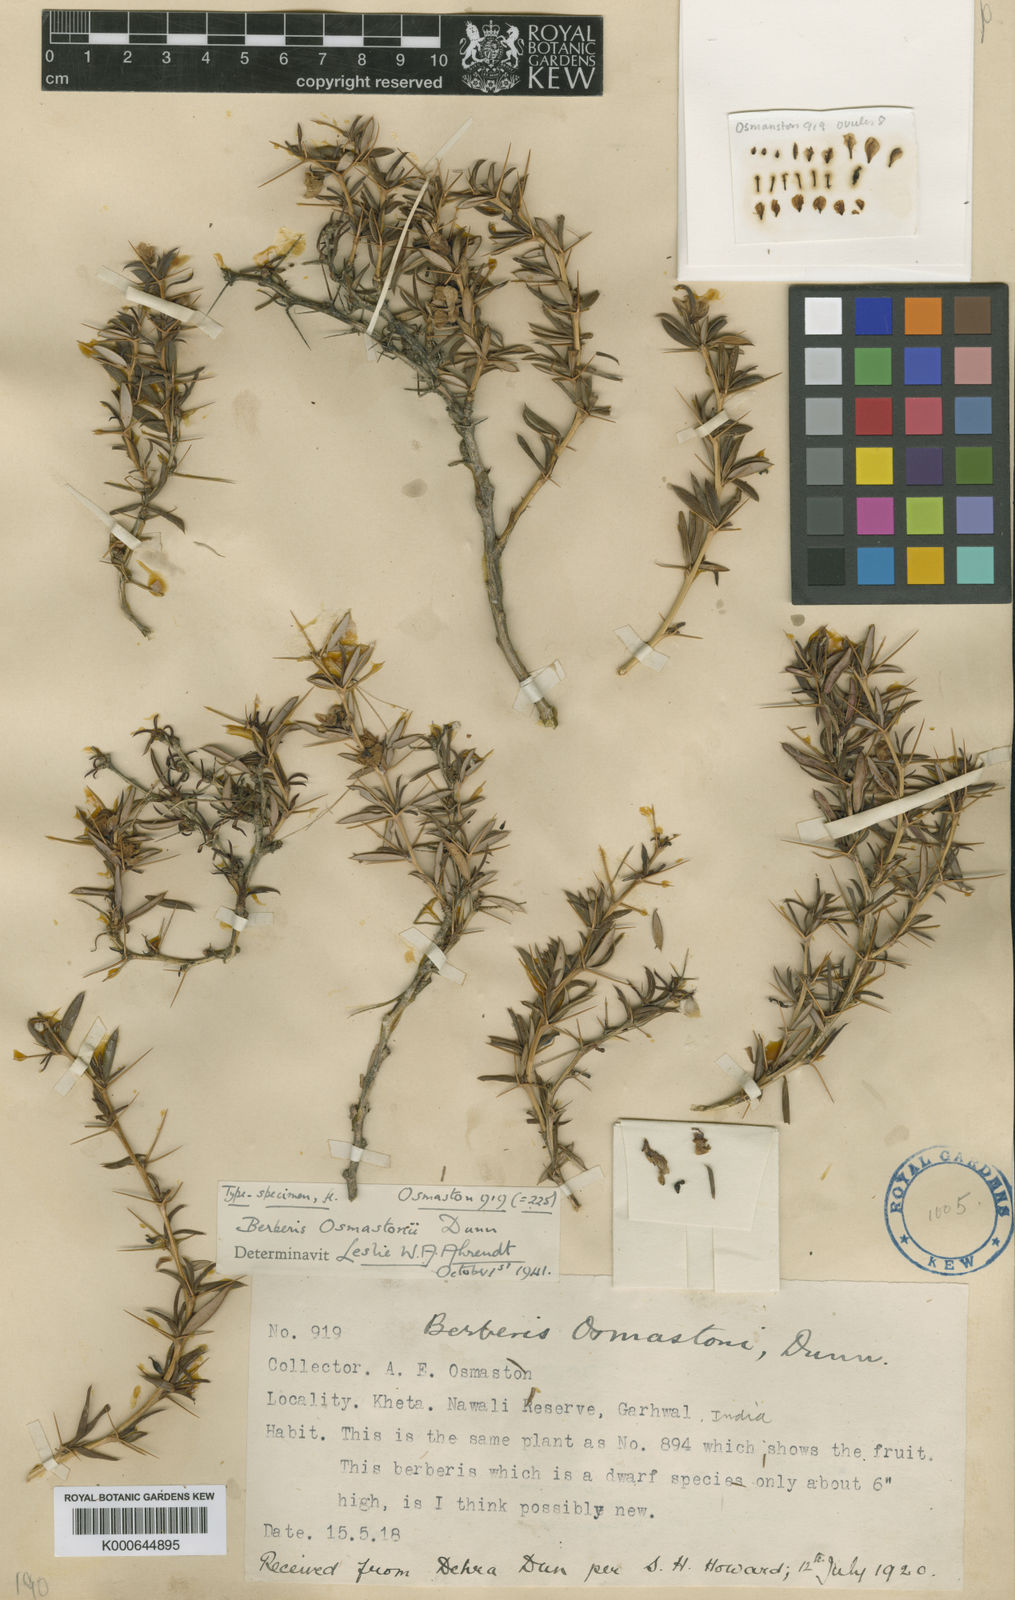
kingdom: Plantae
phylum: Tracheophyta
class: Magnoliopsida
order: Ranunculales
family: Berberidaceae
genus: Berberis
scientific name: Berberis osmastonii
